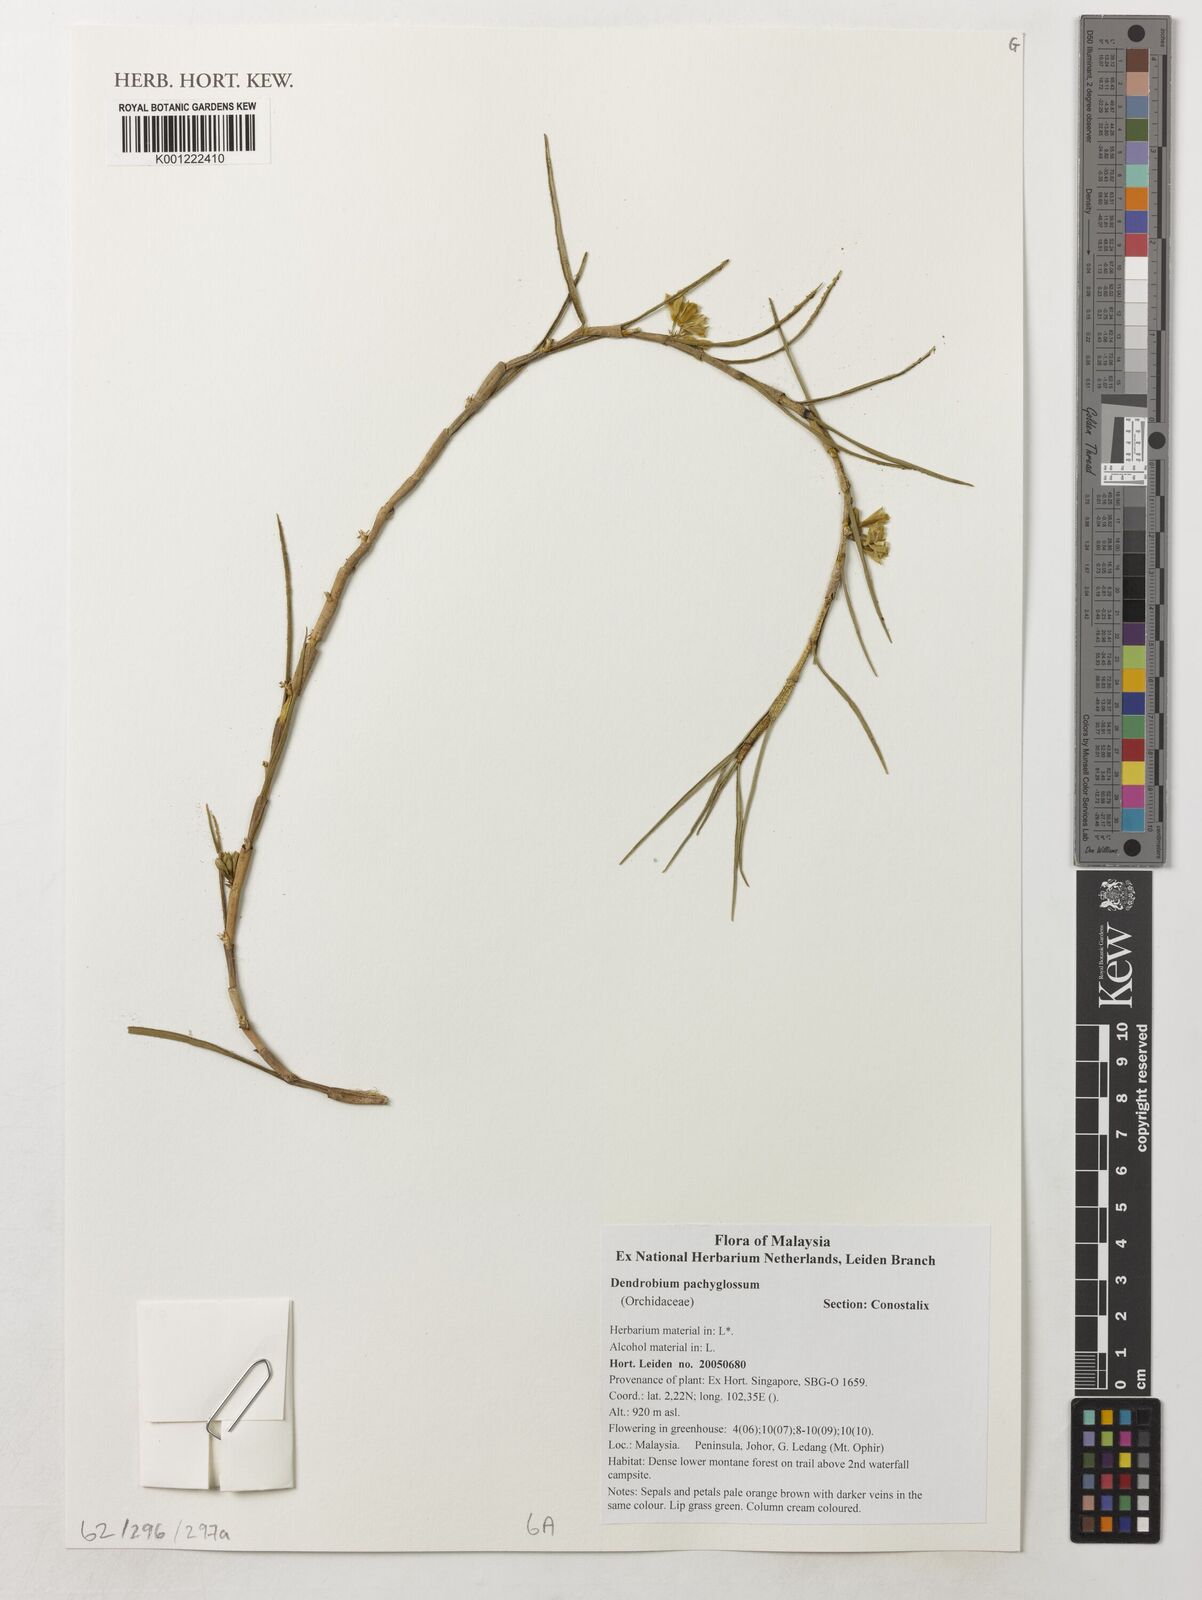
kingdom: Plantae
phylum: Tracheophyta
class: Liliopsida
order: Asparagales
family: Orchidaceae
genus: Dendrobium
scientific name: Dendrobium pachyglossum
